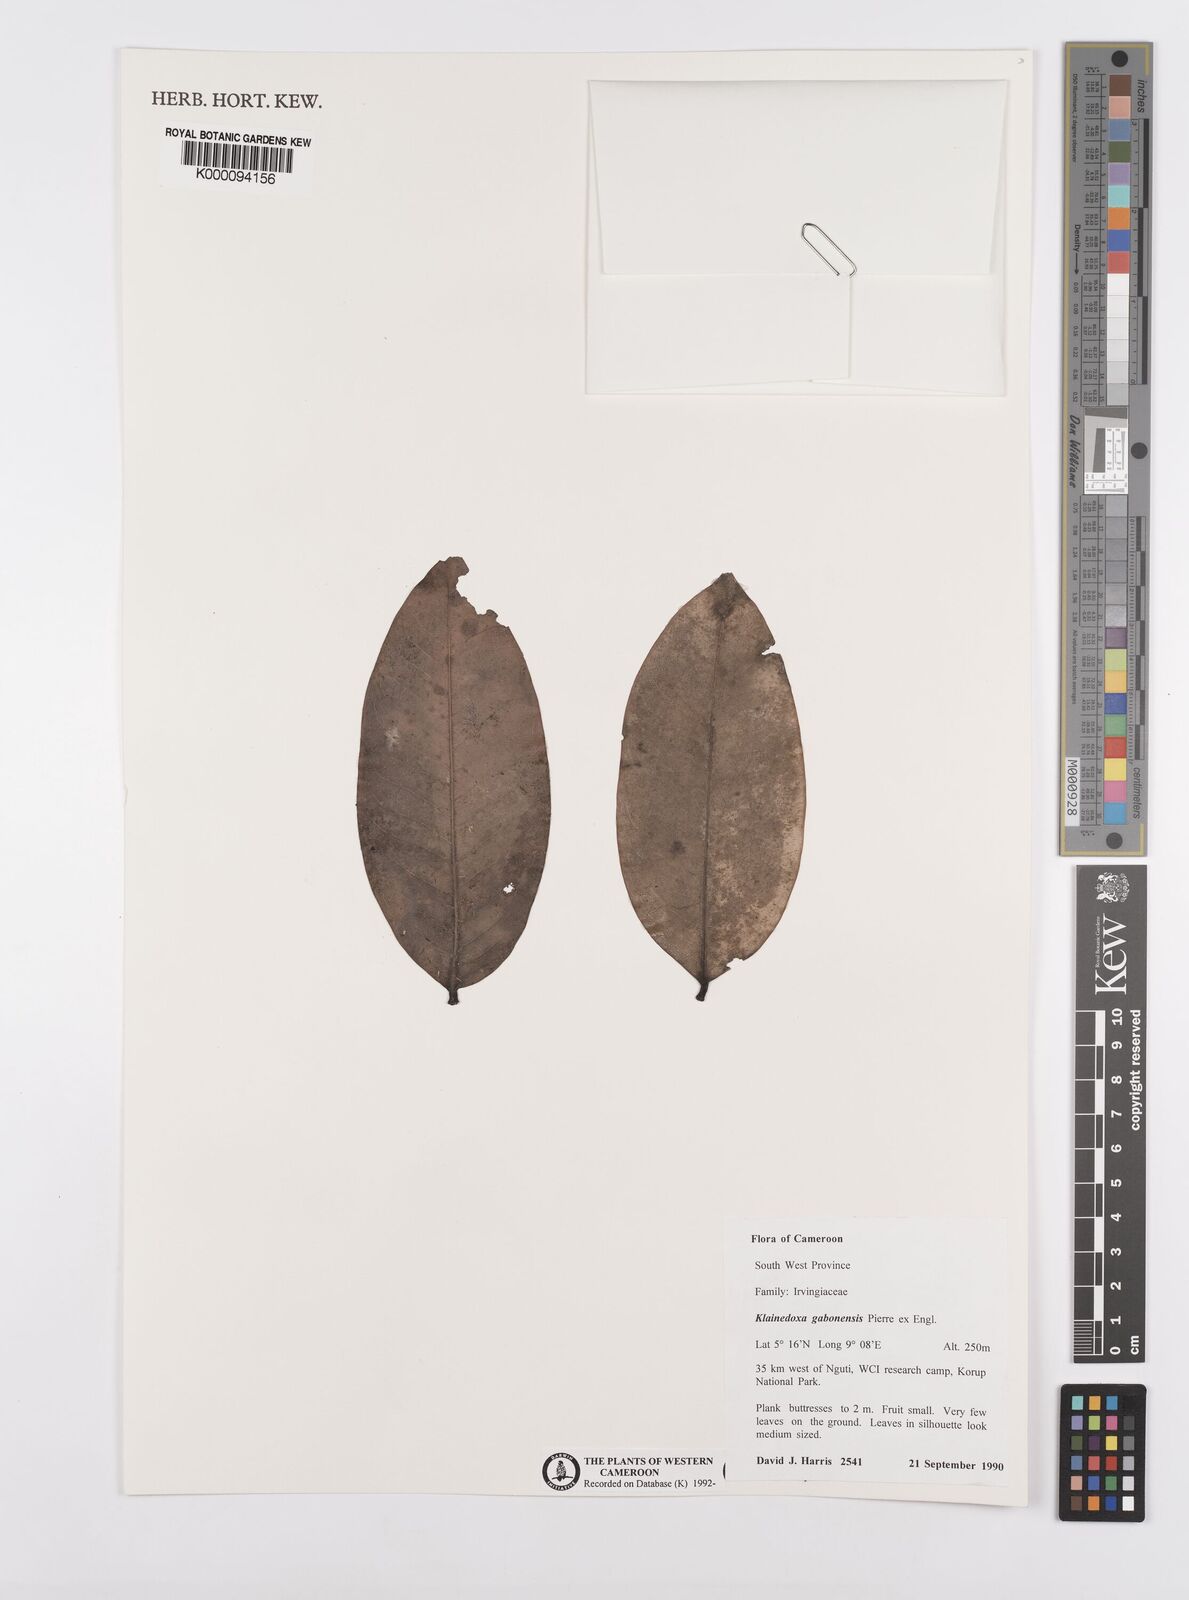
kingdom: Plantae
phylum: Tracheophyta
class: Magnoliopsida
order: Malpighiales
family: Irvingiaceae
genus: Klainedoxa
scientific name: Klainedoxa gabonensis
